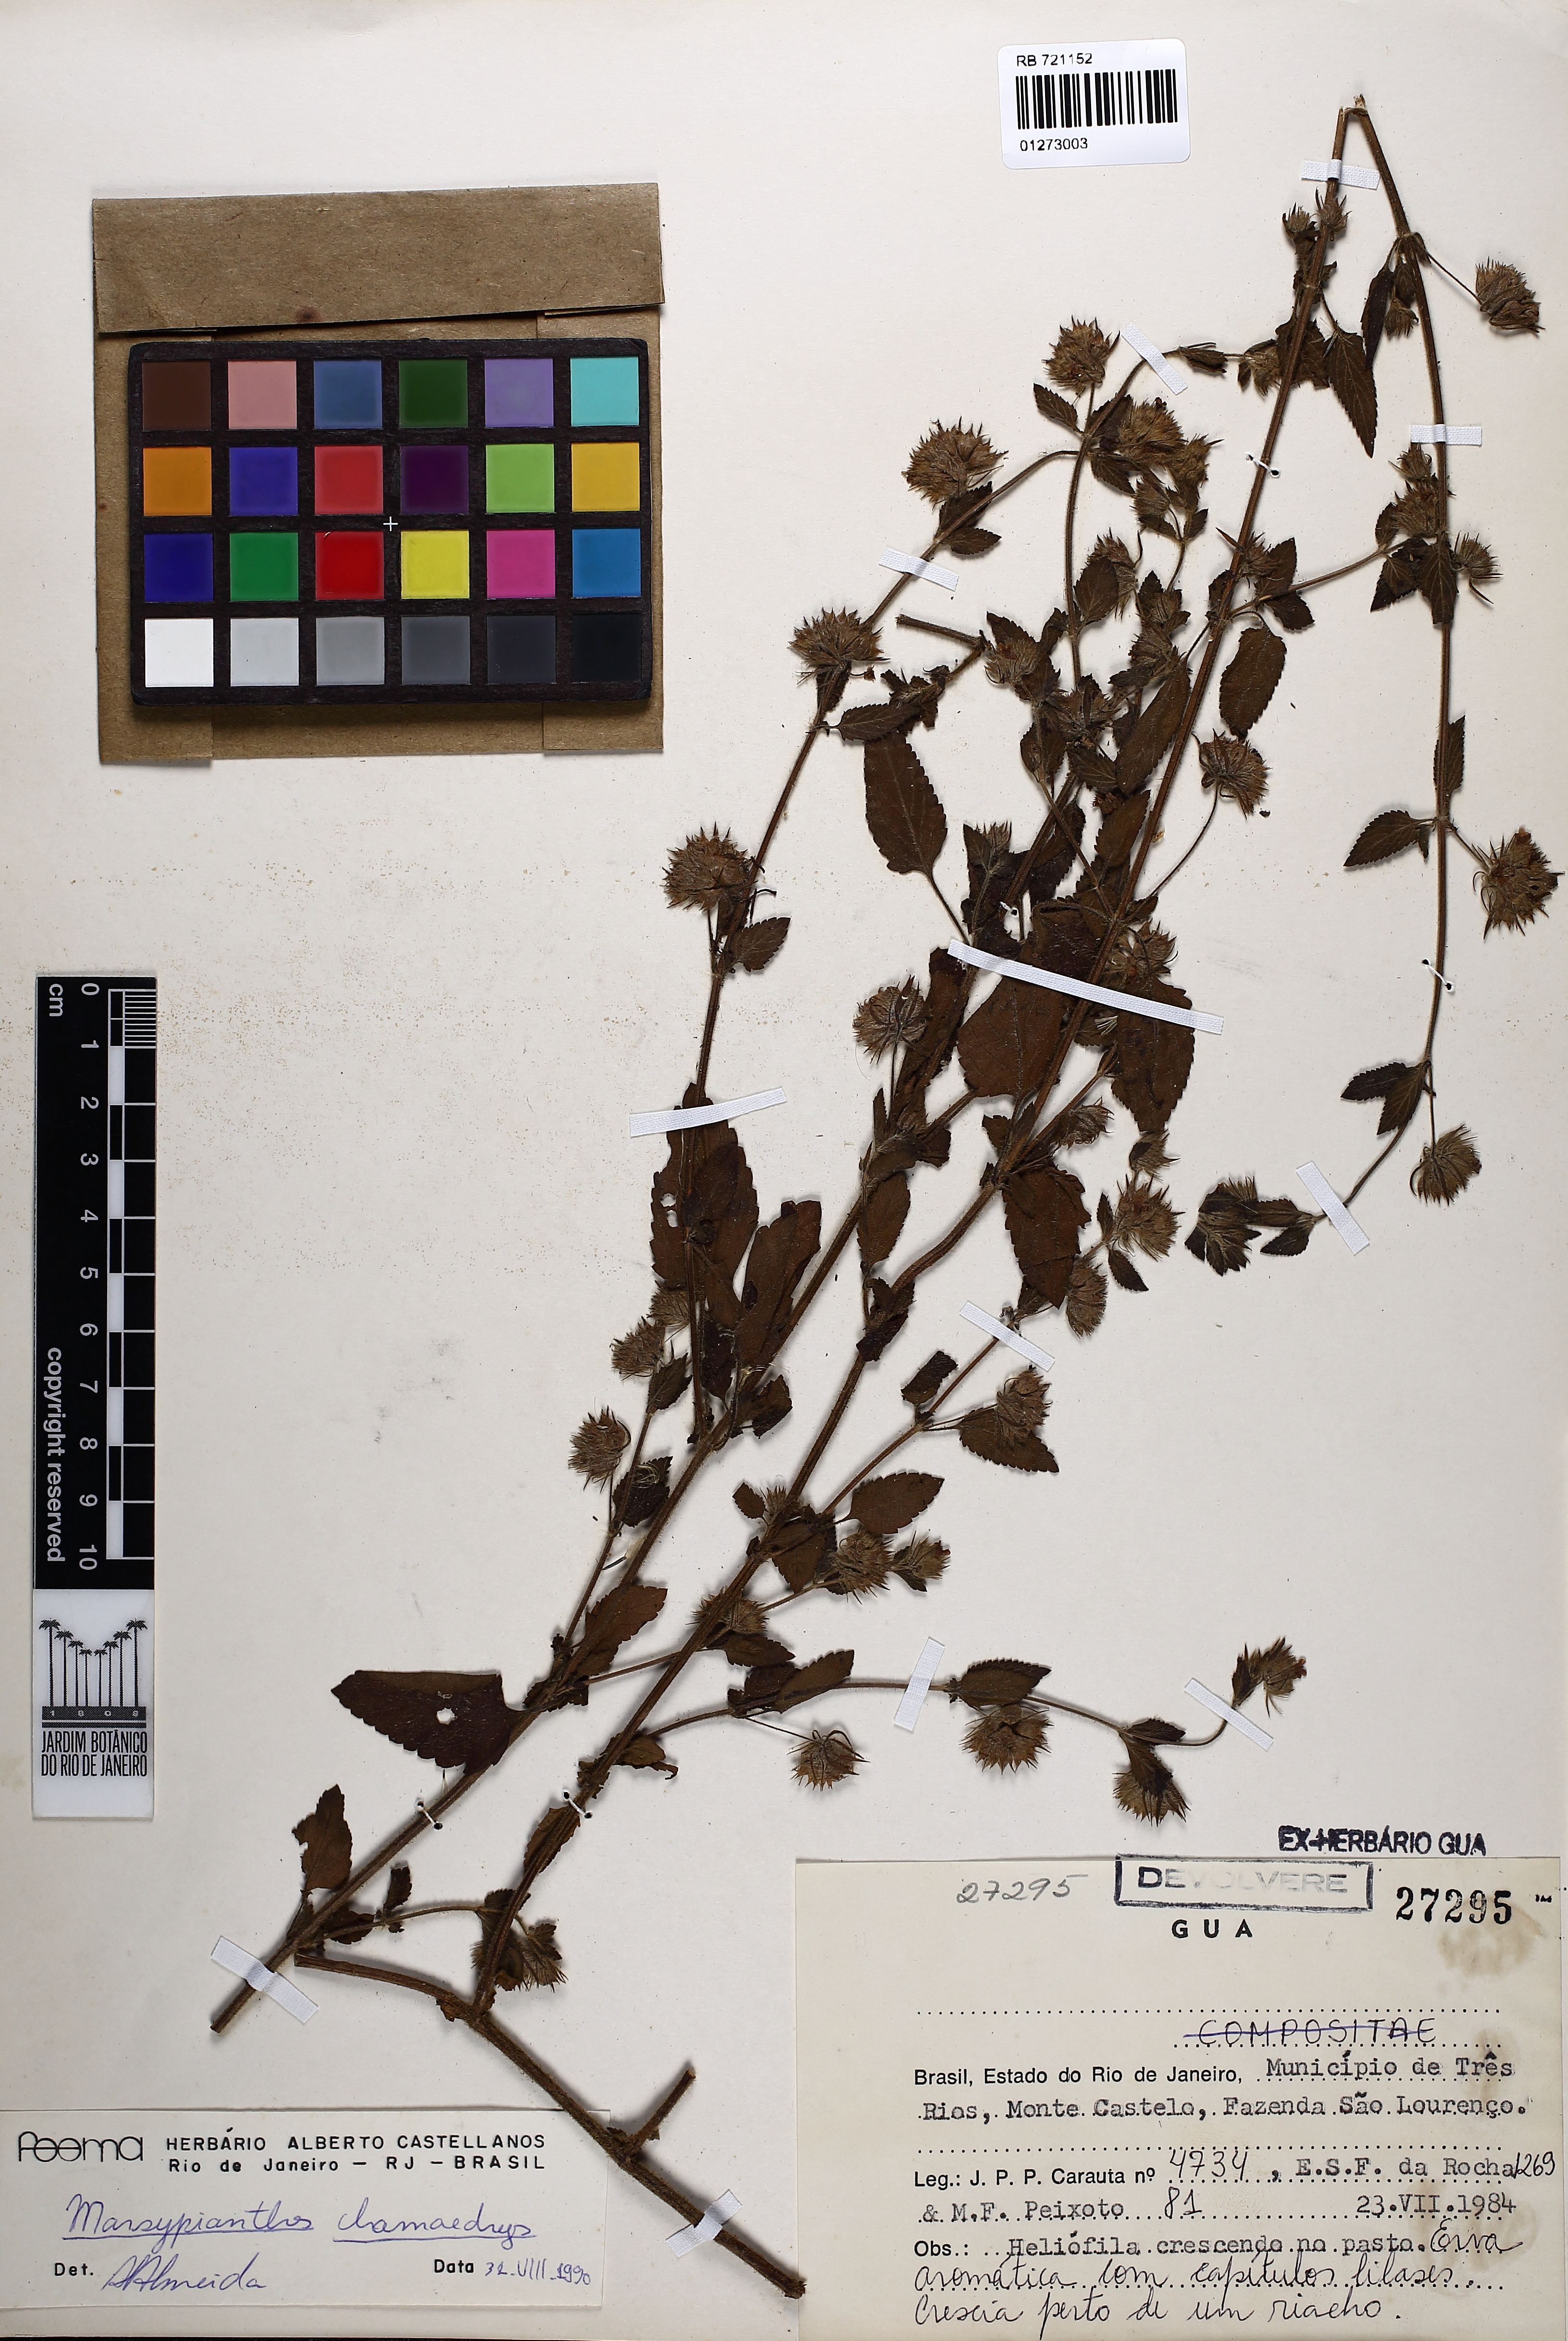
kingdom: Plantae
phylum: Tracheophyta
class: Magnoliopsida
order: Lamiales
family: Lamiaceae
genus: Marsypianthes
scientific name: Marsypianthes chamaedrys
